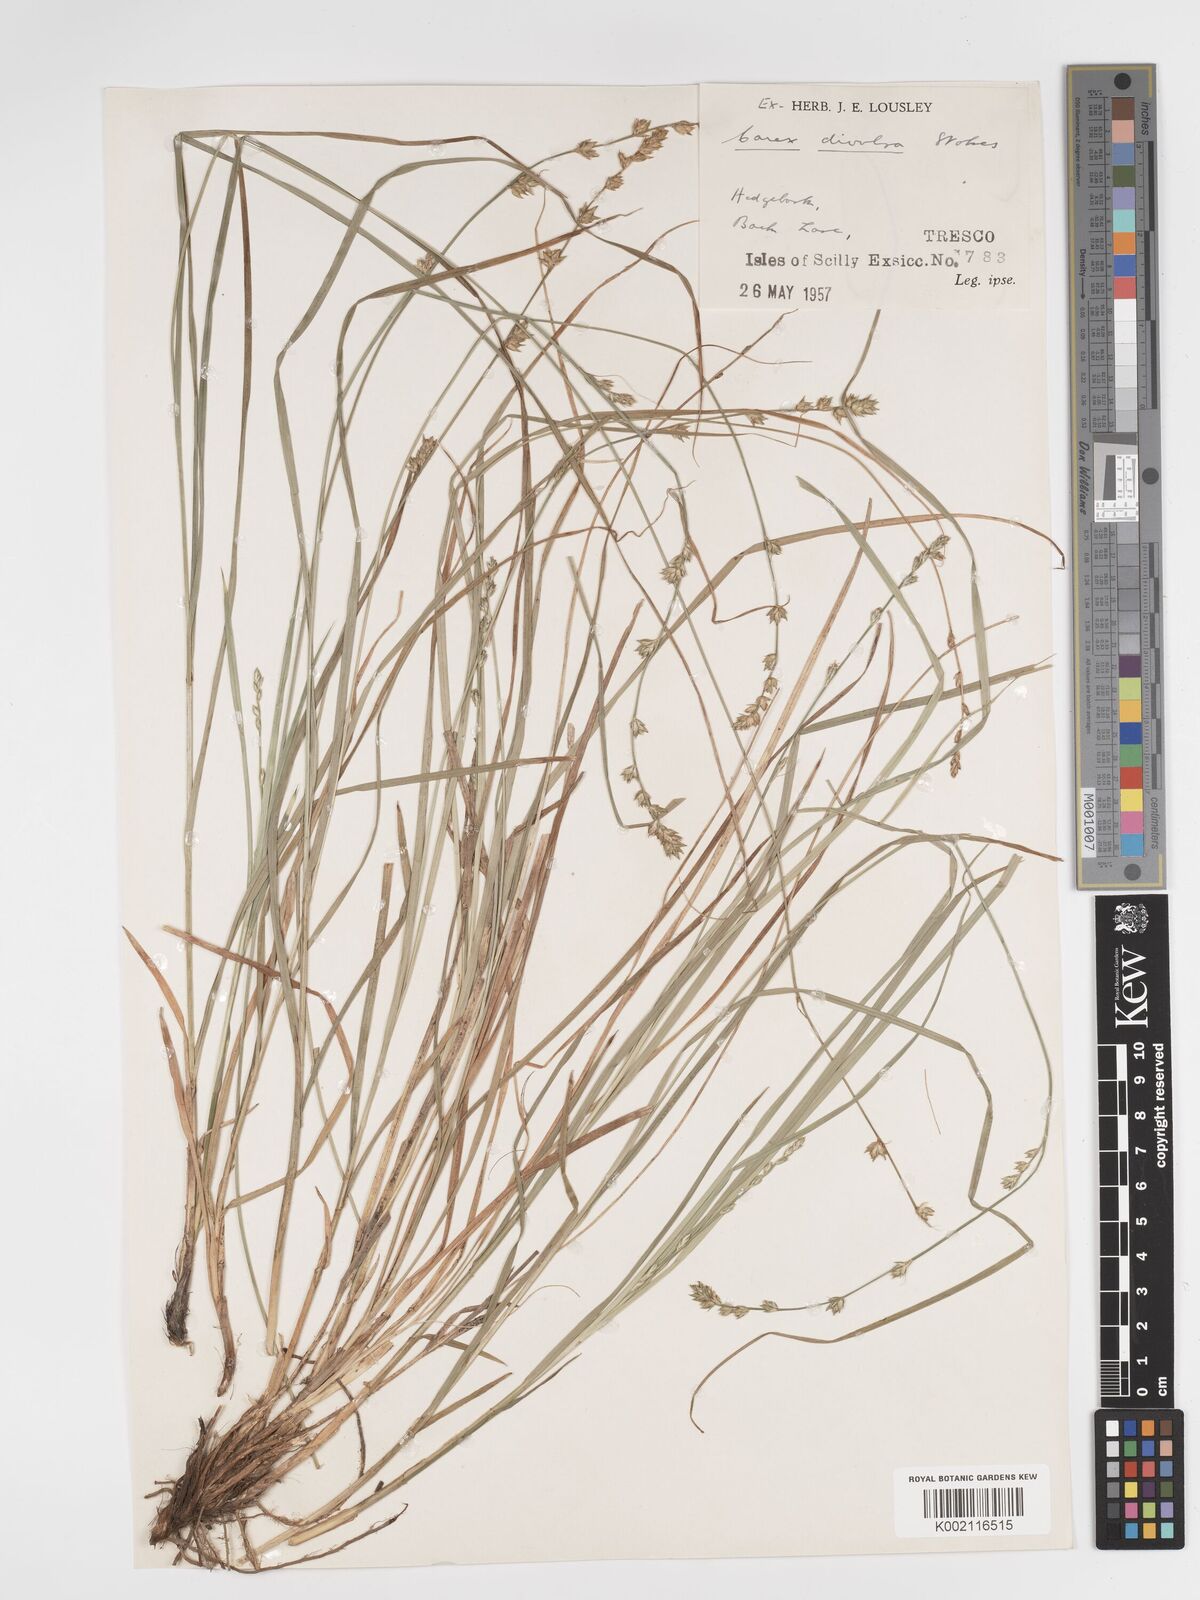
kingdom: Plantae
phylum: Tracheophyta
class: Liliopsida
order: Poales
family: Cyperaceae
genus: Carex
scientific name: Carex divulsa
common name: Grassland sedge
